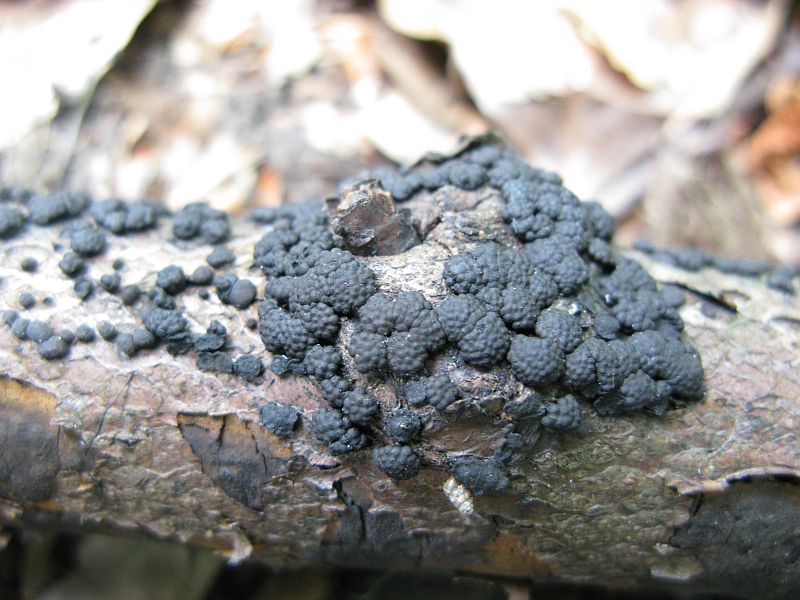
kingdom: Fungi
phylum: Ascomycota
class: Sordariomycetes
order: Xylariales
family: Hypoxylaceae
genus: Jackrogersella
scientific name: Jackrogersella cohaerens
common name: sammenflydende kulbær
